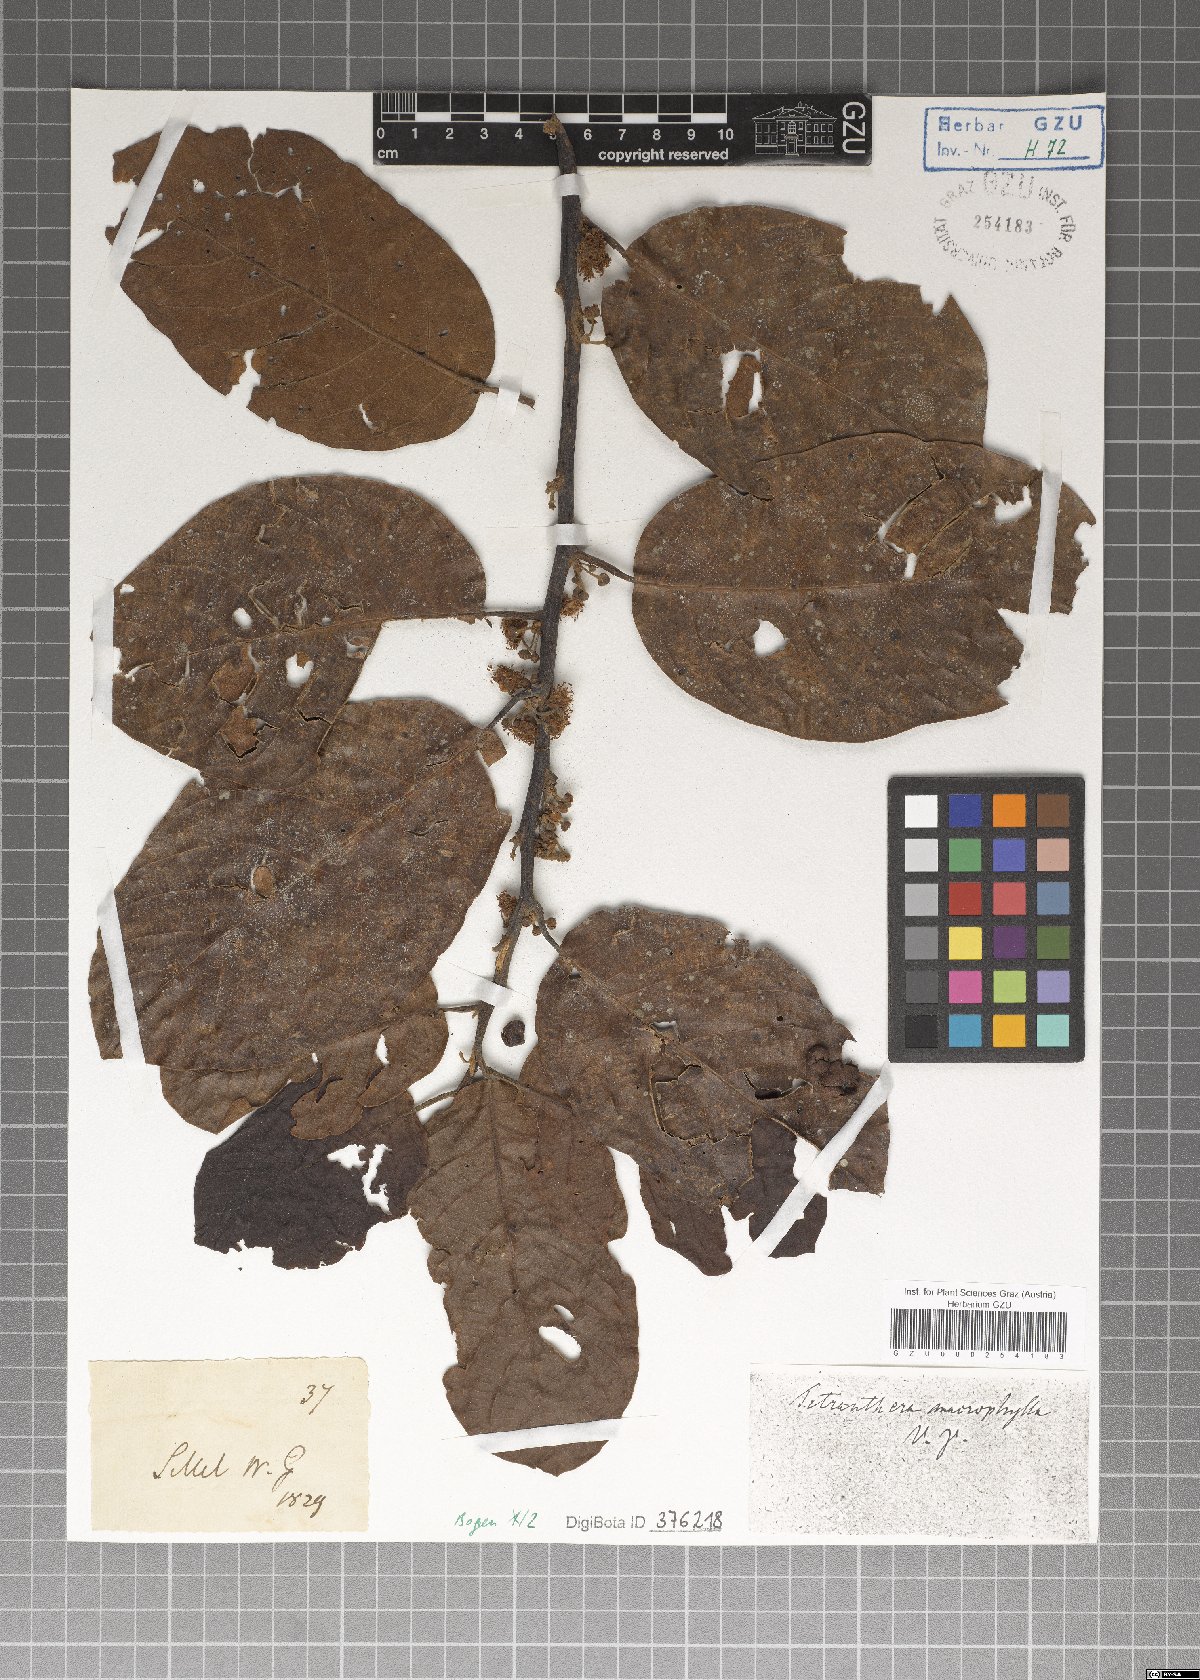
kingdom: Plantae
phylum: Tracheophyta
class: Magnoliopsida
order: Laurales
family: Lauraceae
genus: Litsea
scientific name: Litsea monopetala
